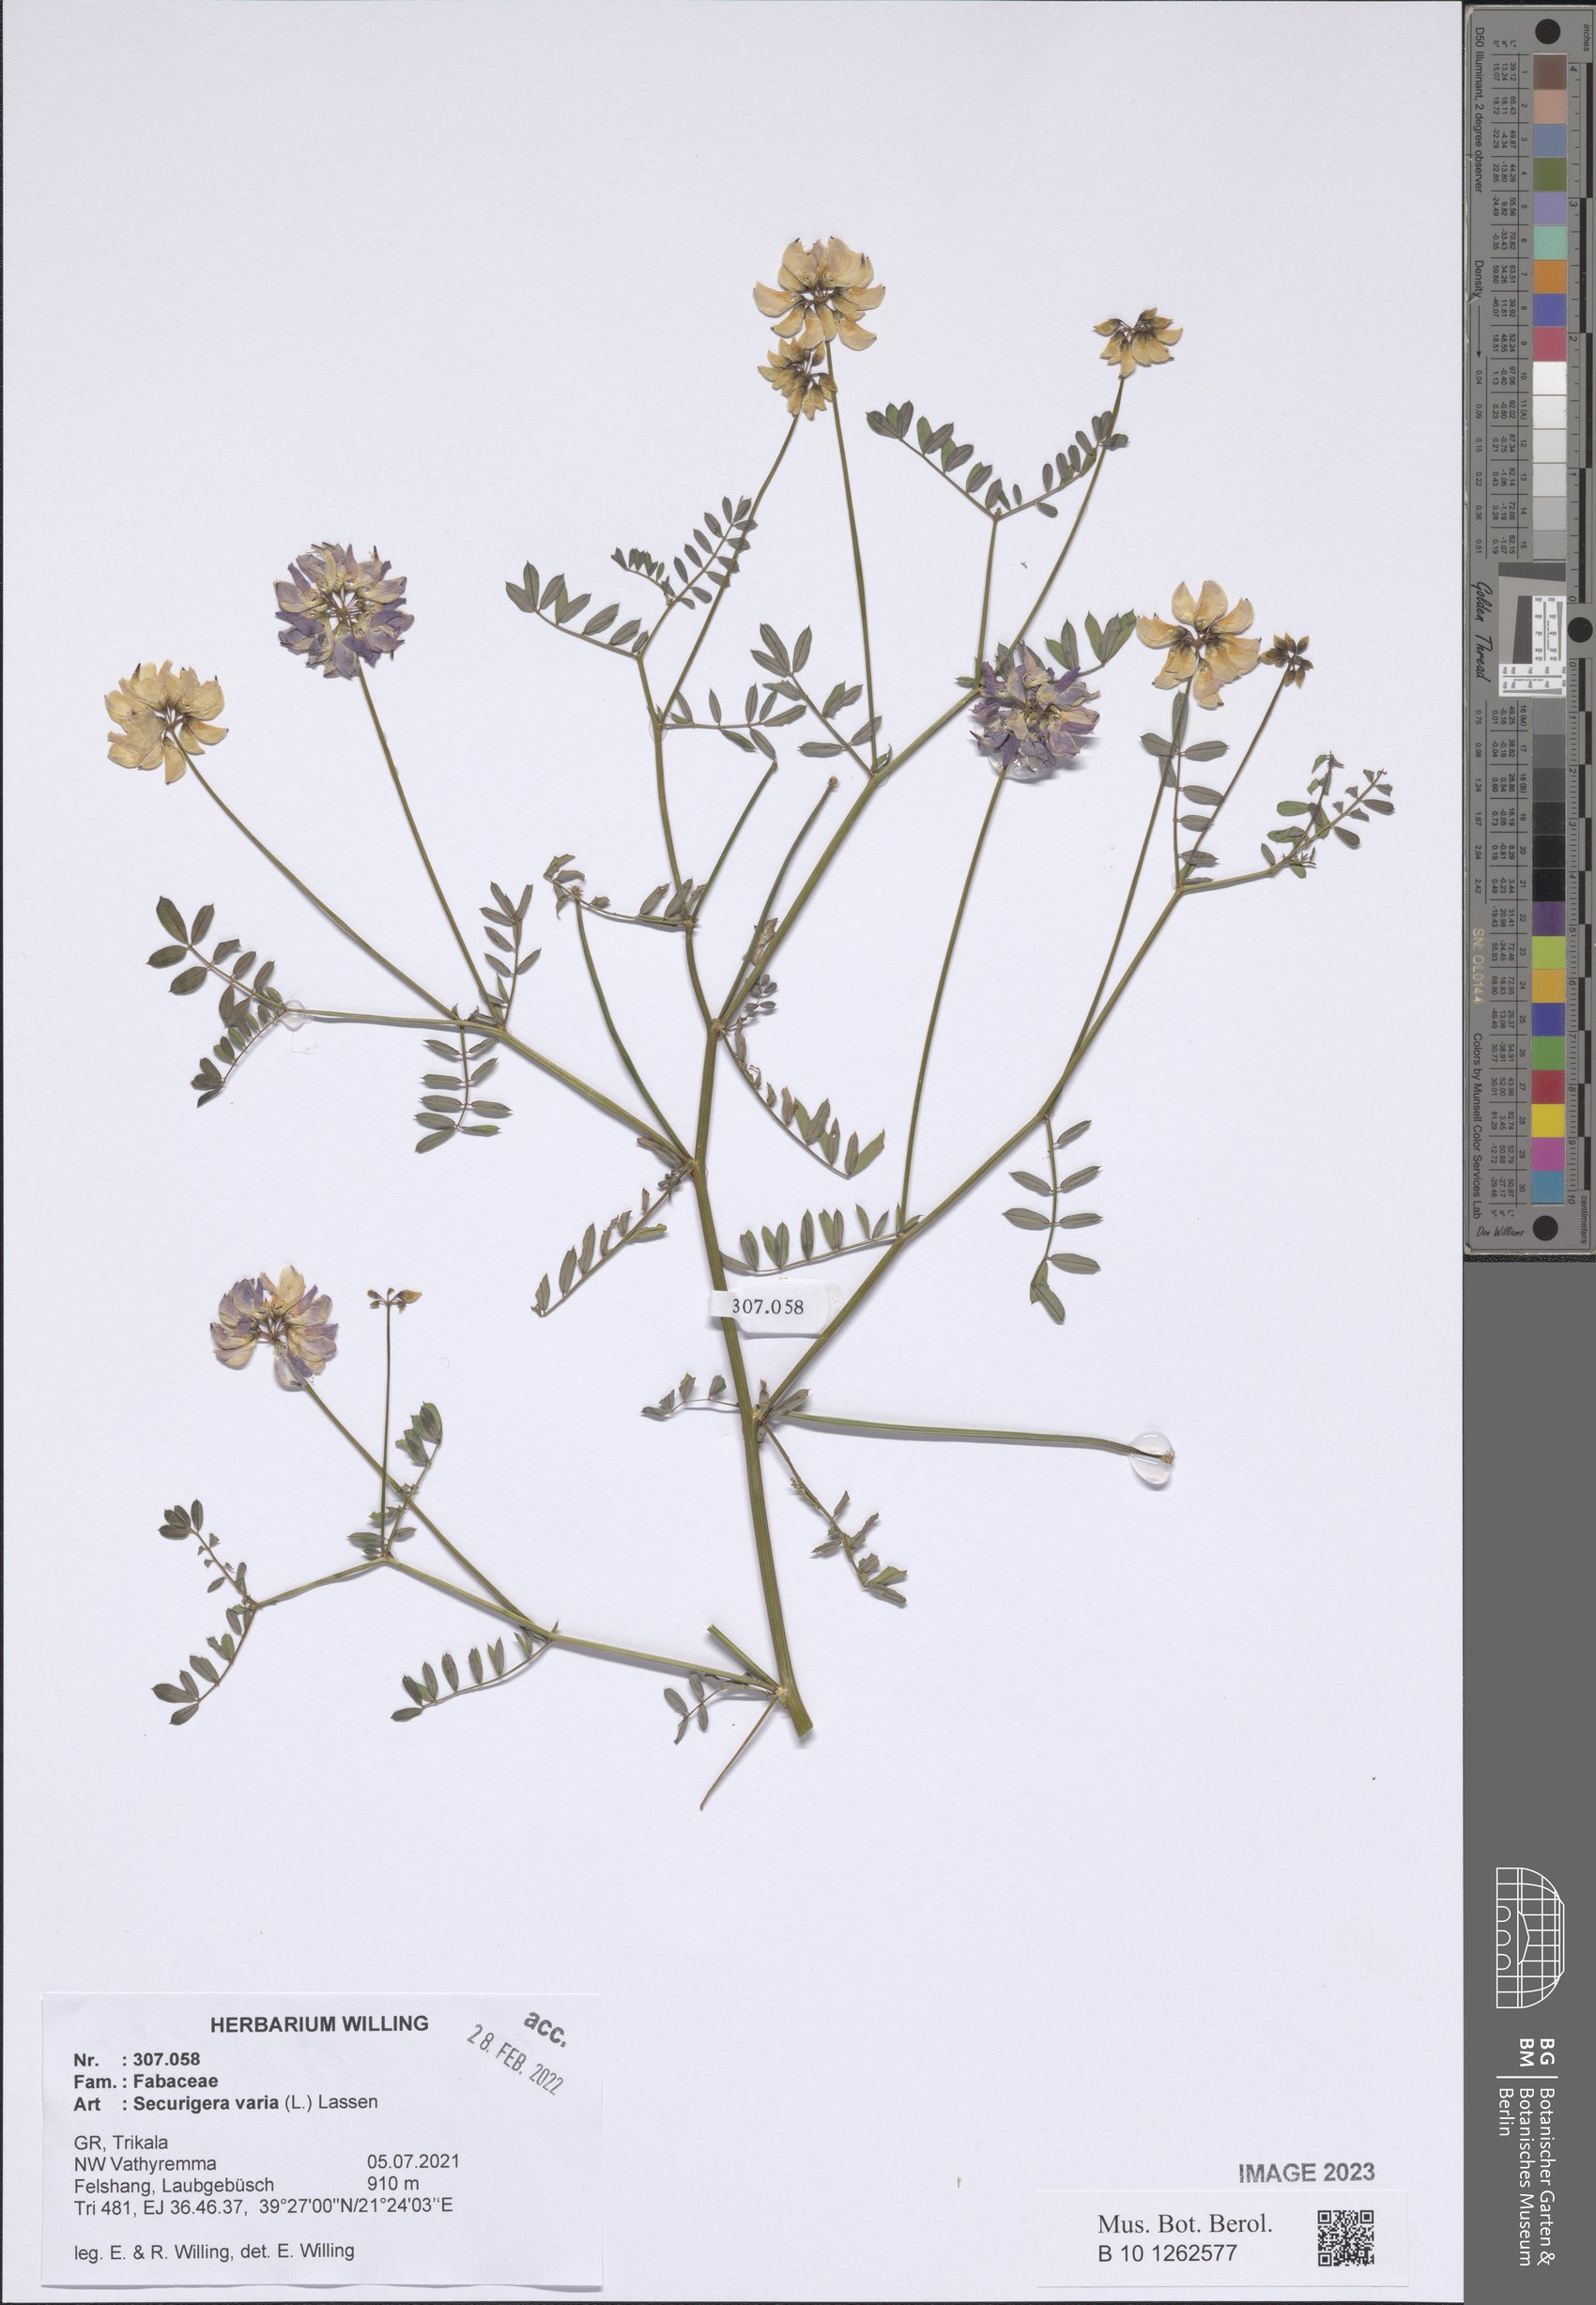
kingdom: Plantae
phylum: Tracheophyta
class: Magnoliopsida
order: Fabales
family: Fabaceae
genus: Coronilla
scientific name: Coronilla varia
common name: Crownvetch
